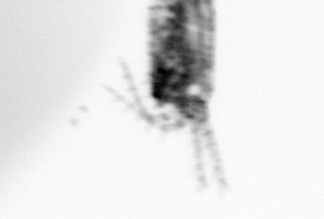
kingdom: Animalia
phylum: Arthropoda
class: Copepoda
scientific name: Copepoda
